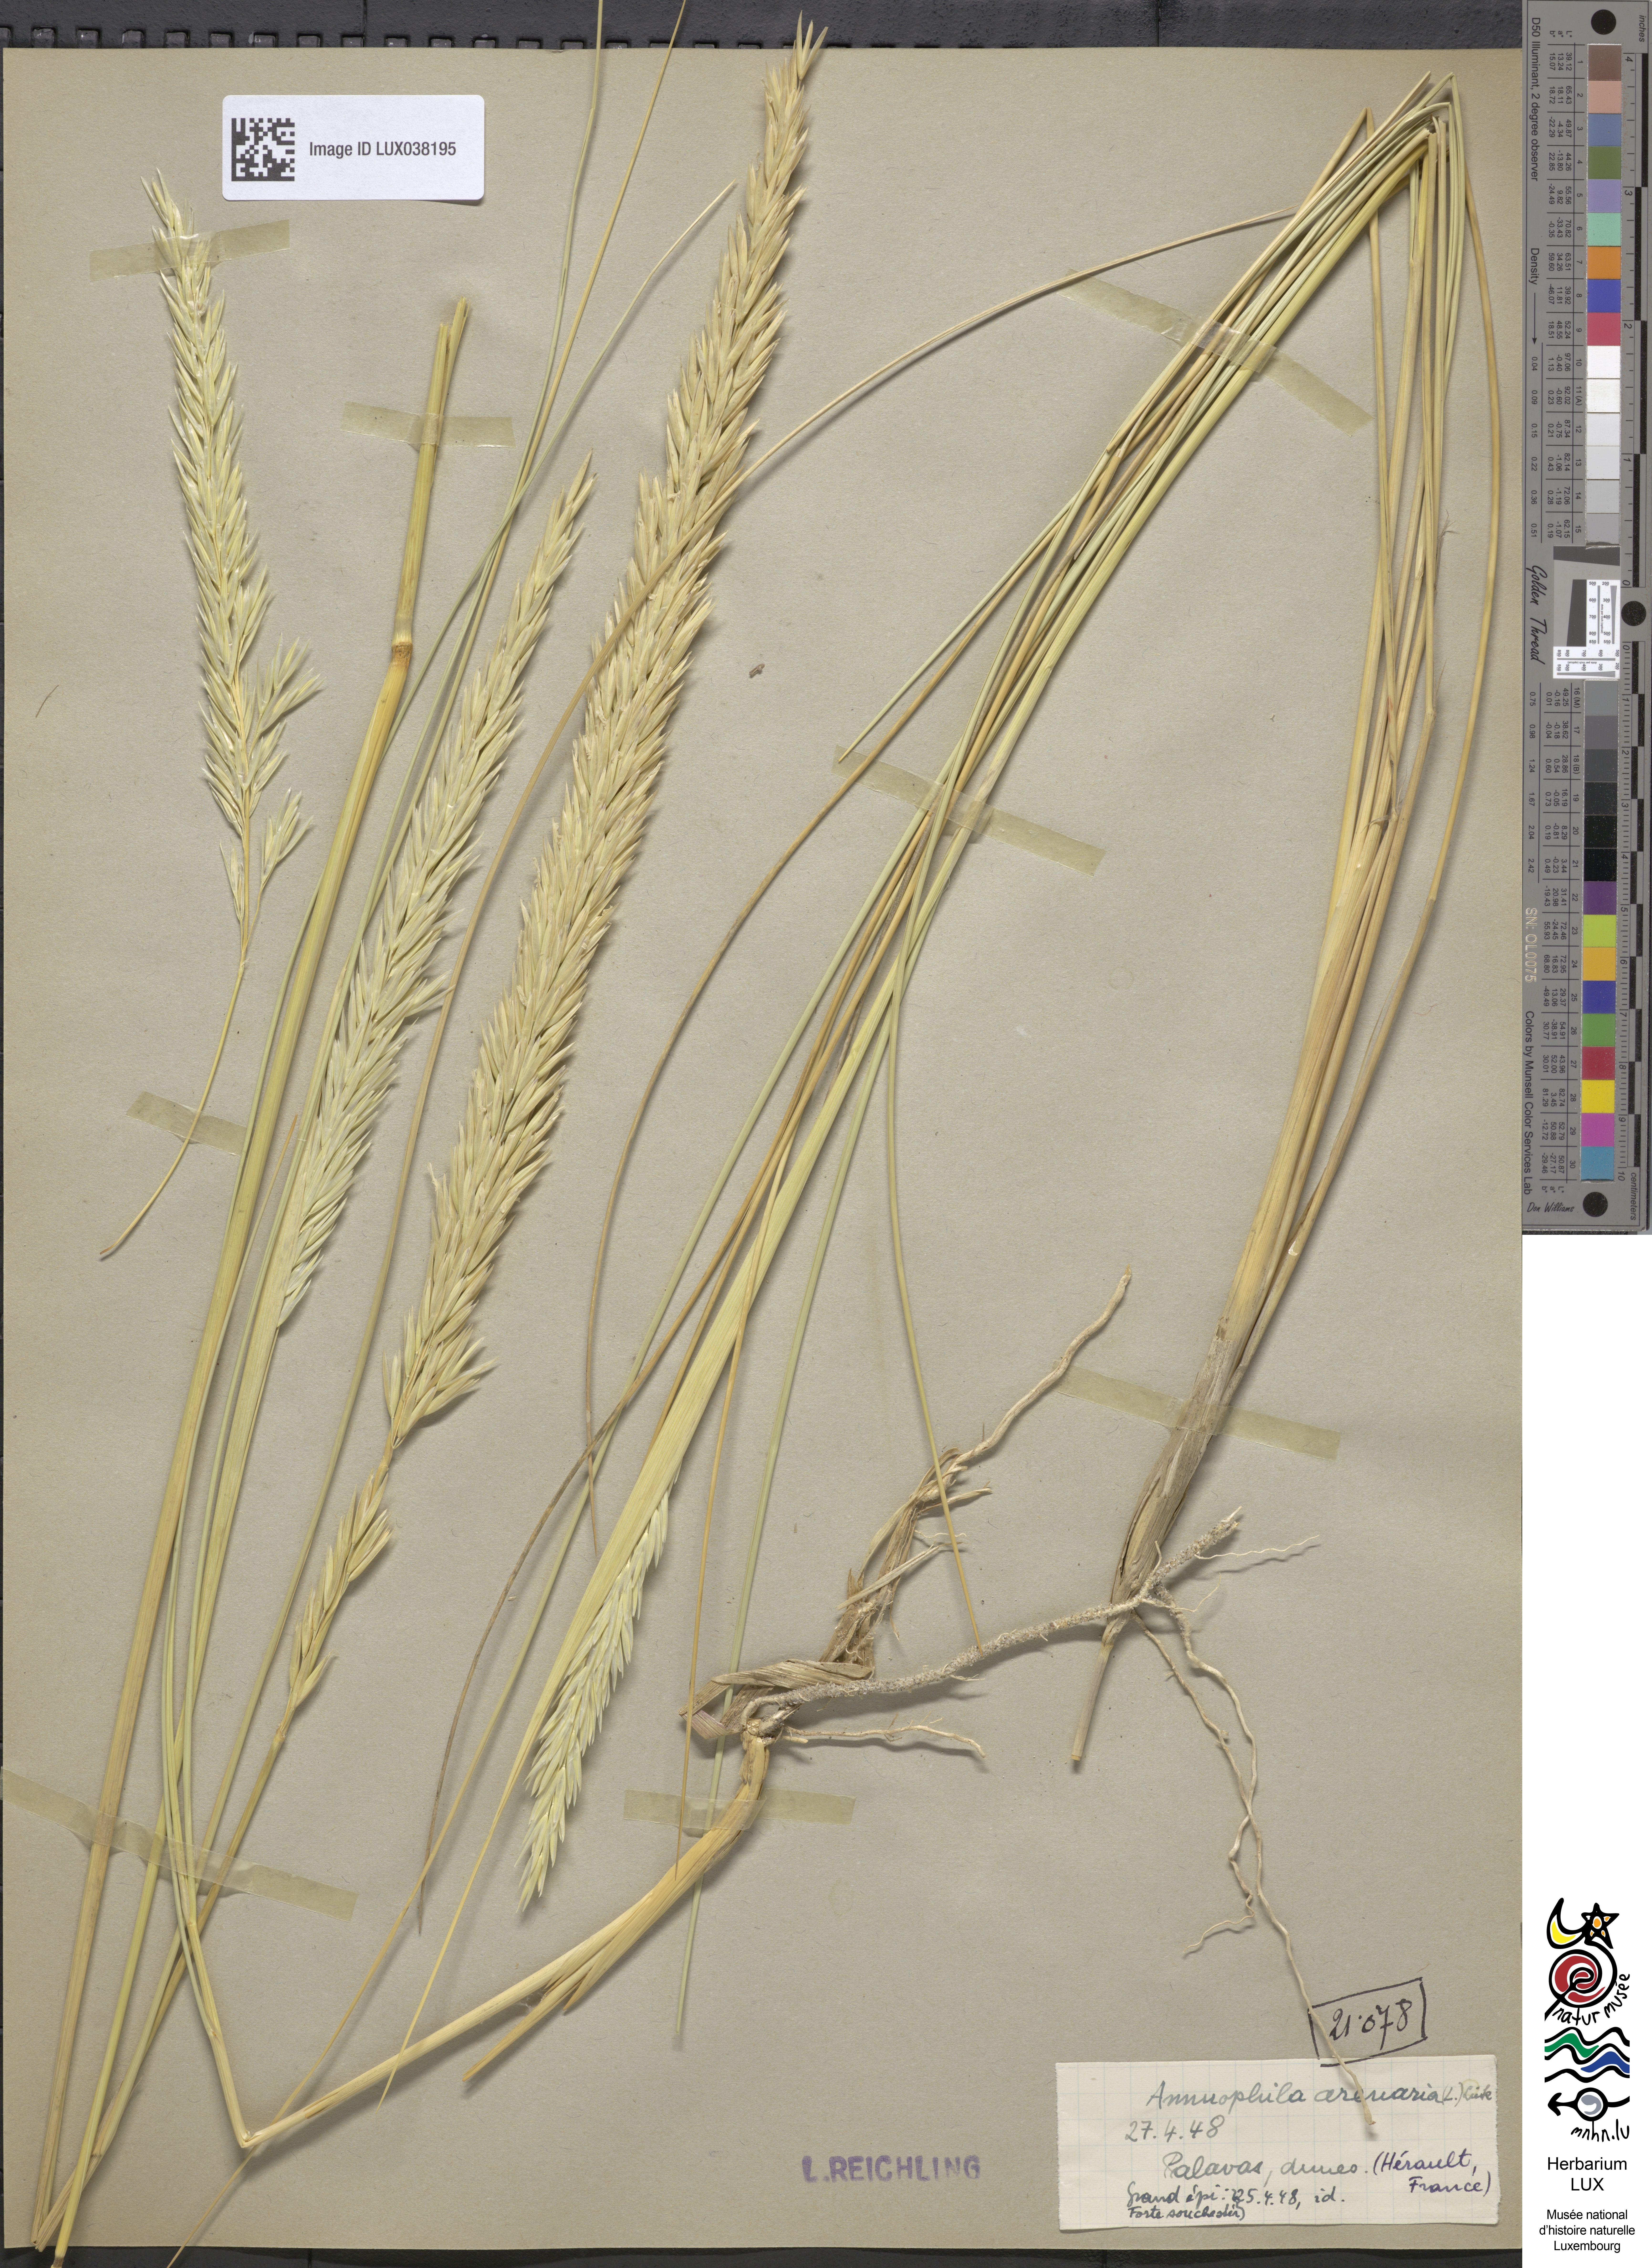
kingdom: Plantae
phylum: Tracheophyta
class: Liliopsida
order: Poales
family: Poaceae
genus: Calamagrostis
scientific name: Calamagrostis arenaria
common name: European beachgrass
